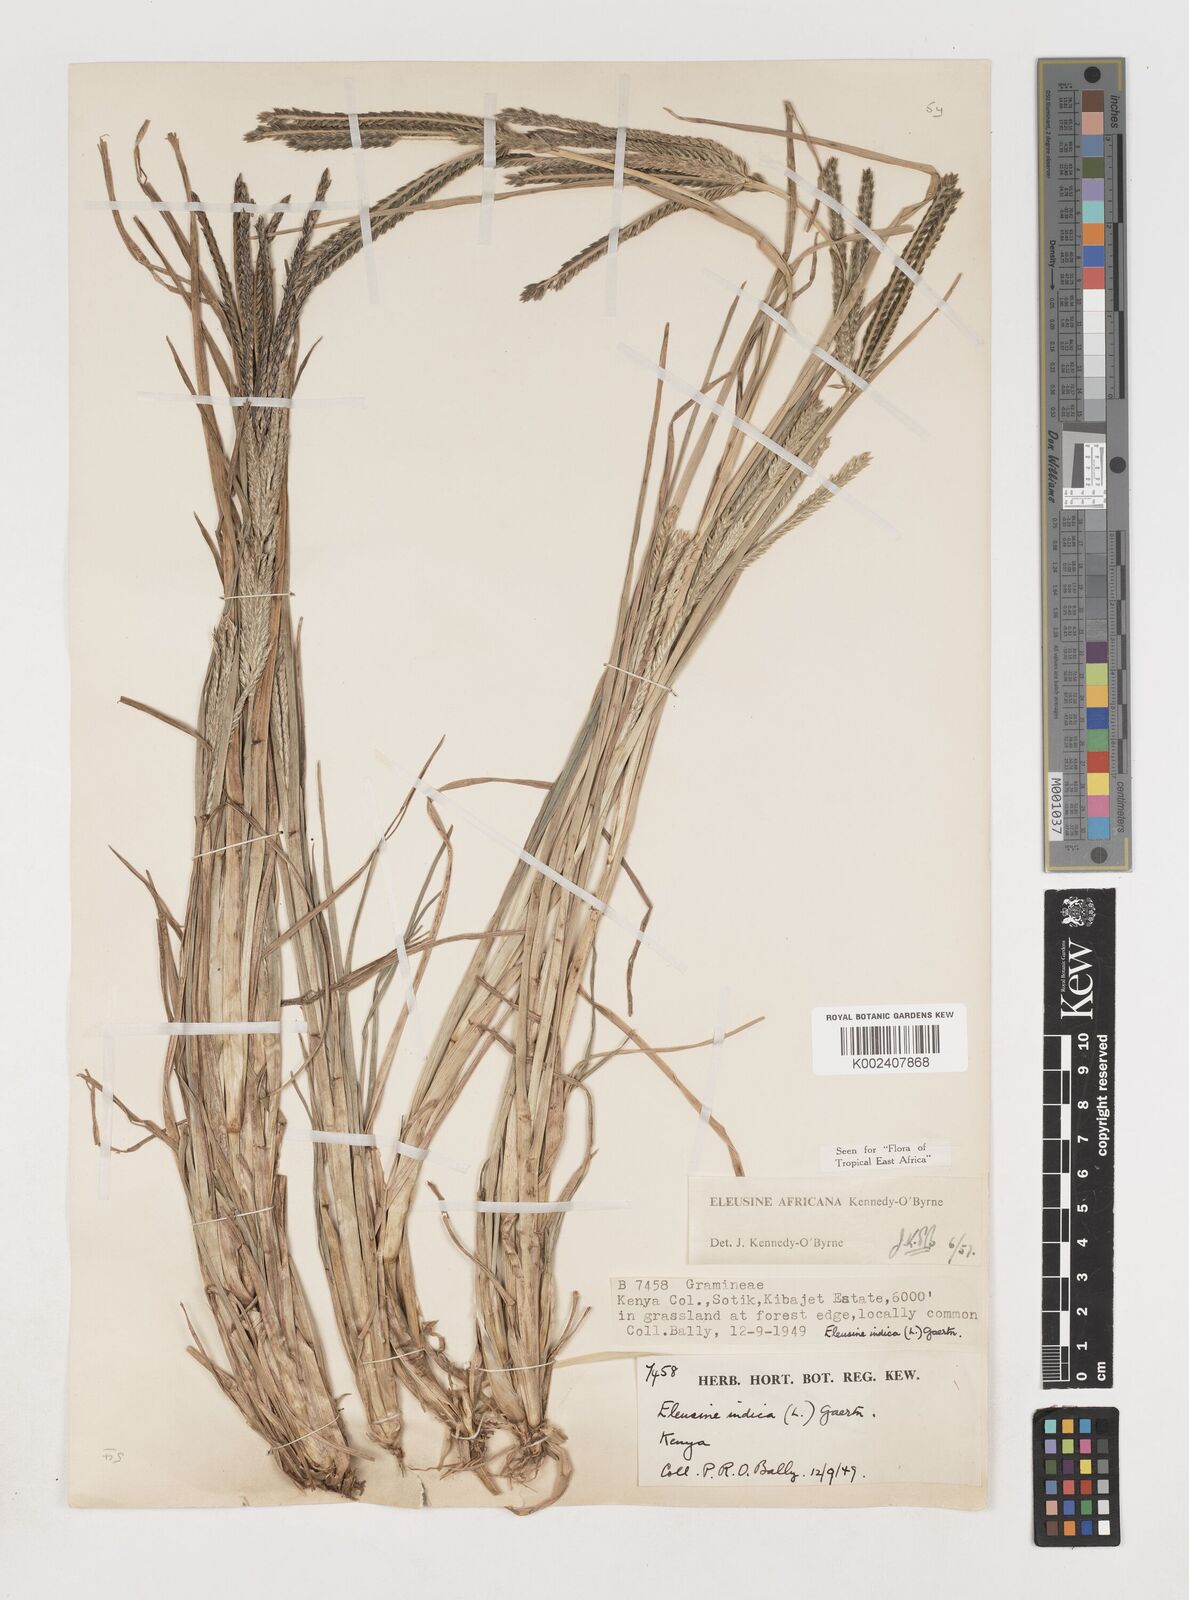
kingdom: Plantae
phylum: Tracheophyta
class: Liliopsida
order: Poales
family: Poaceae
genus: Eleusine
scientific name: Eleusine africana
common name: Wild african finger millet
